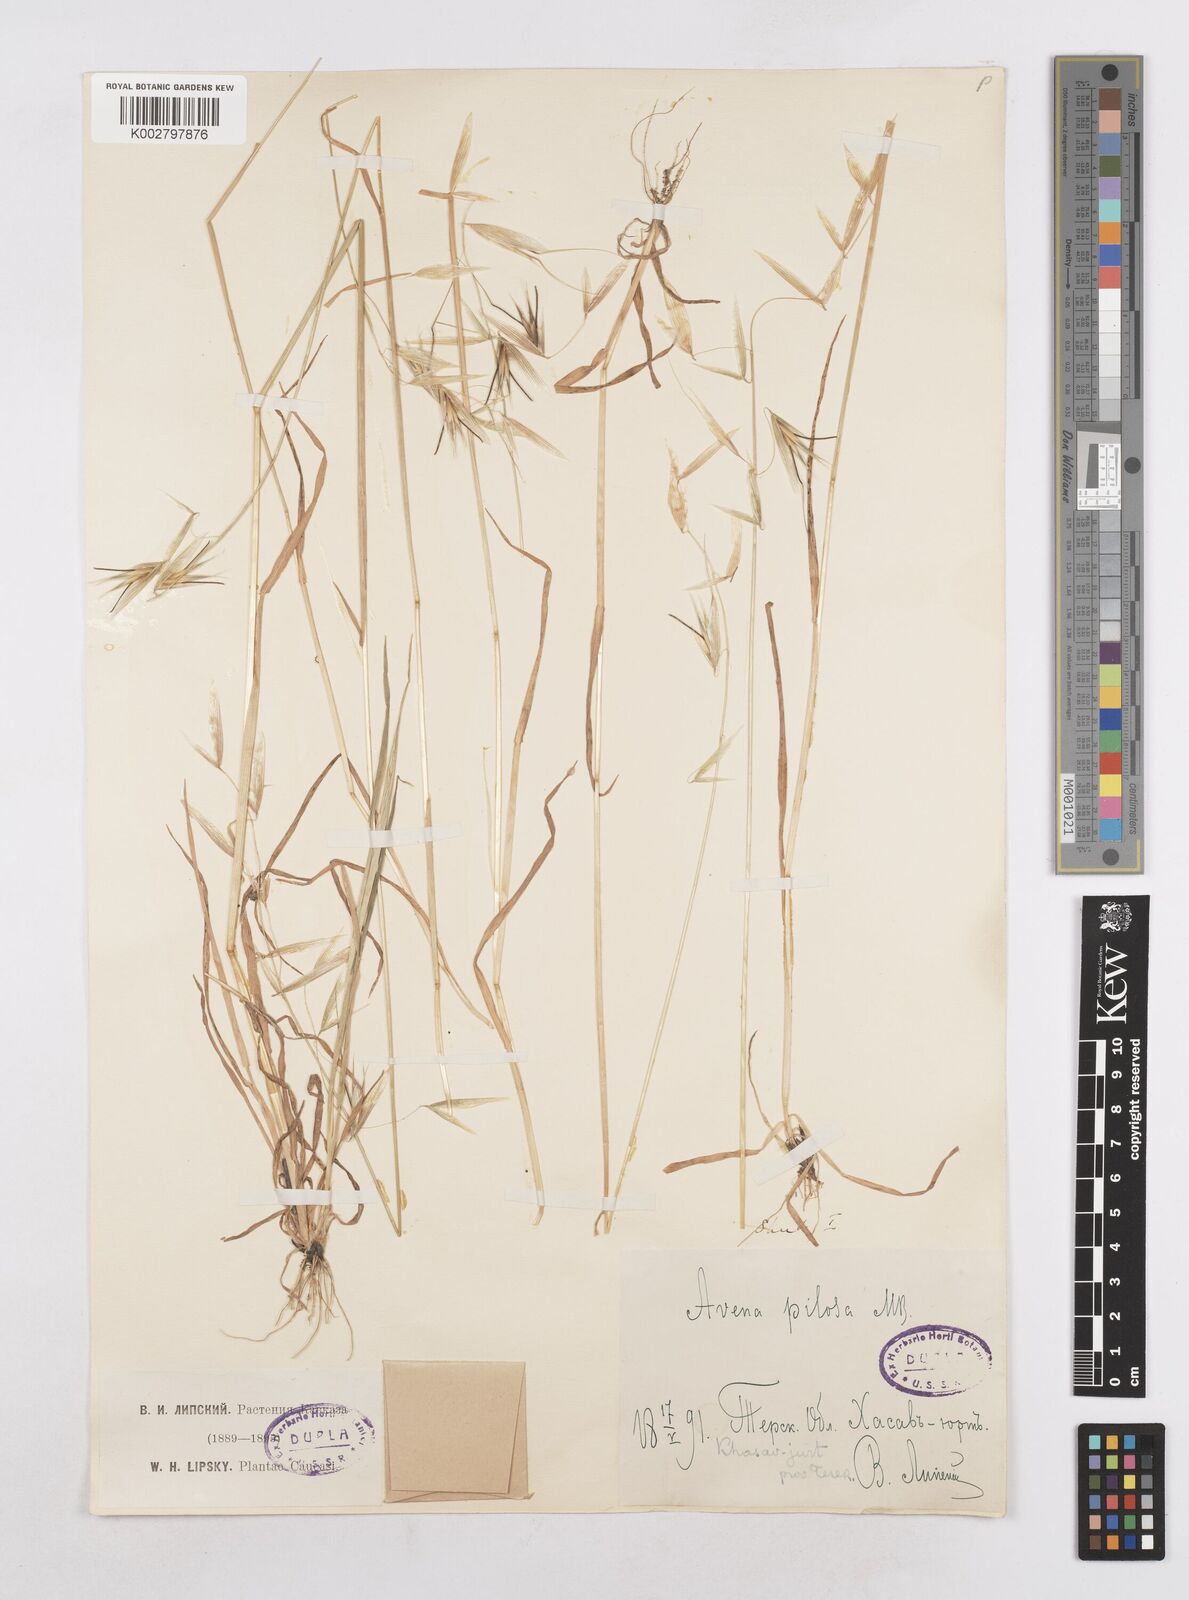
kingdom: Plantae
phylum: Tracheophyta
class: Liliopsida
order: Poales
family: Poaceae
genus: Avena
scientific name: Avena
